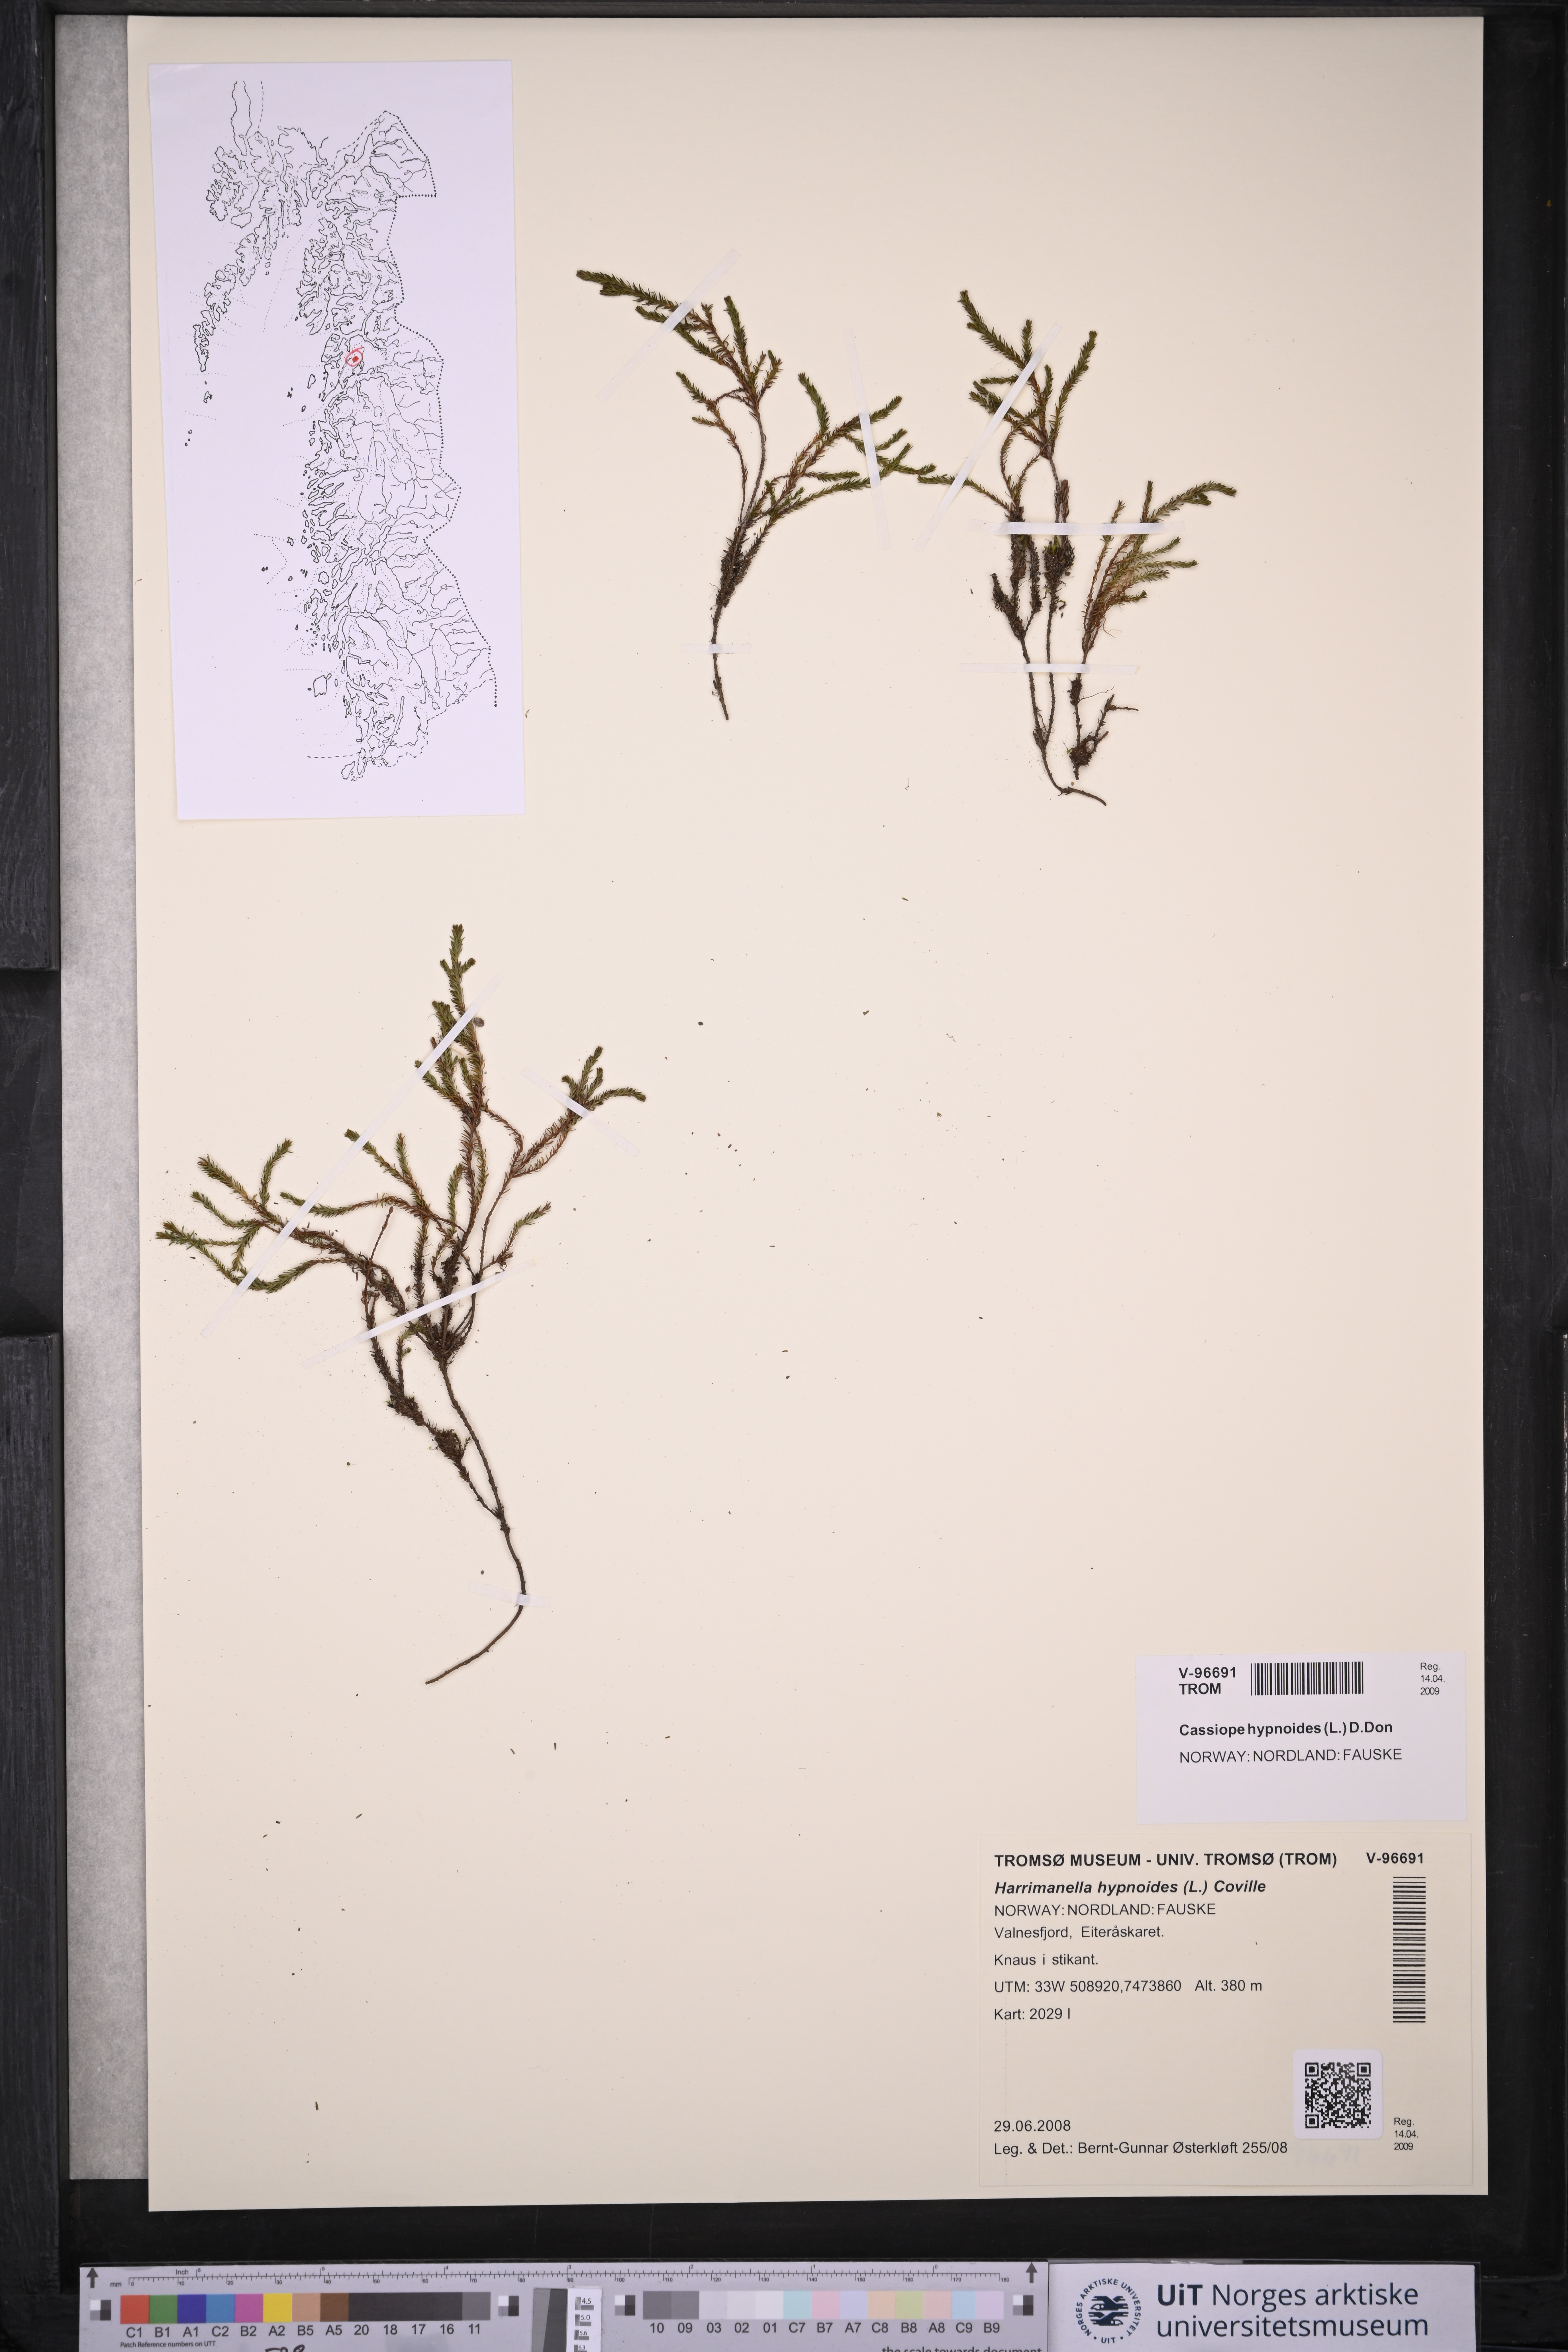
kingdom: Plantae
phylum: Tracheophyta
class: Magnoliopsida
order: Ericales
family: Ericaceae
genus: Harrimanella
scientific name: Harrimanella hypnoides
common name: Moss bell heather
